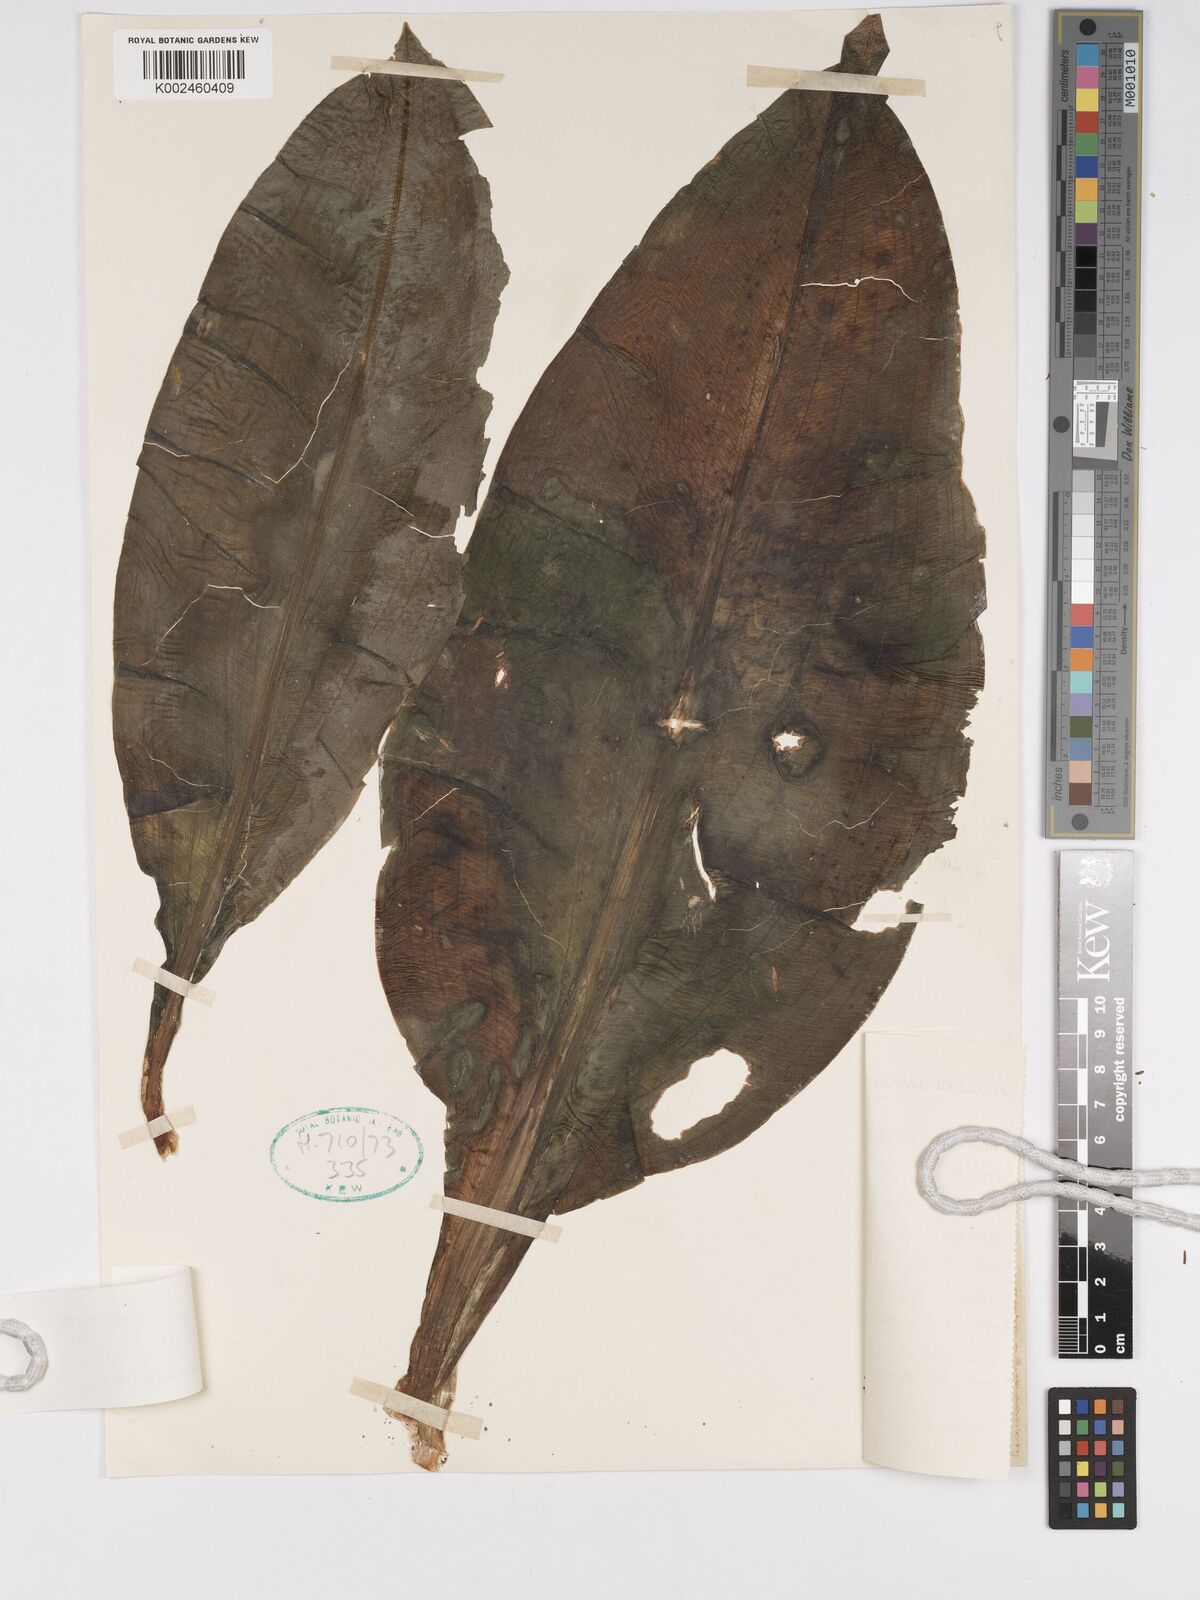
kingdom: Plantae
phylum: Tracheophyta
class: Liliopsida
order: Asparagales
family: Amaryllidaceae
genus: Scadoxus
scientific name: Scadoxus multiflorus
